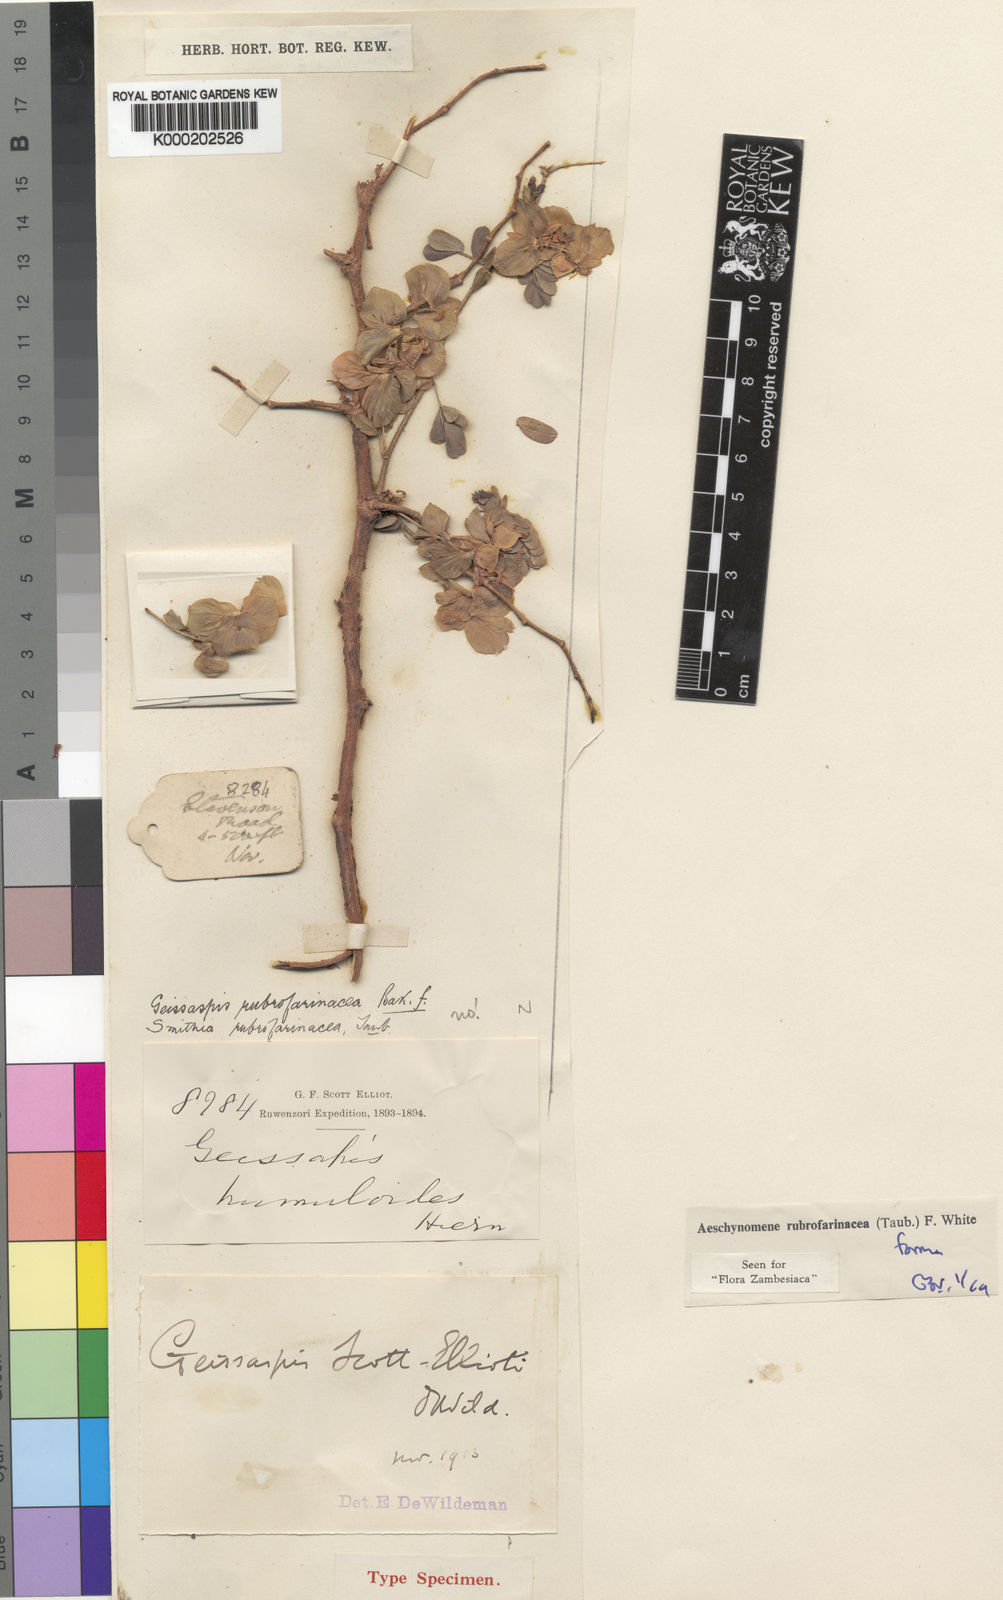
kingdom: Plantae
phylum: Tracheophyta
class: Magnoliopsida
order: Fabales
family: Fabaceae
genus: Aeschynomene
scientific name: Aeschynomene rubrofarinacea
